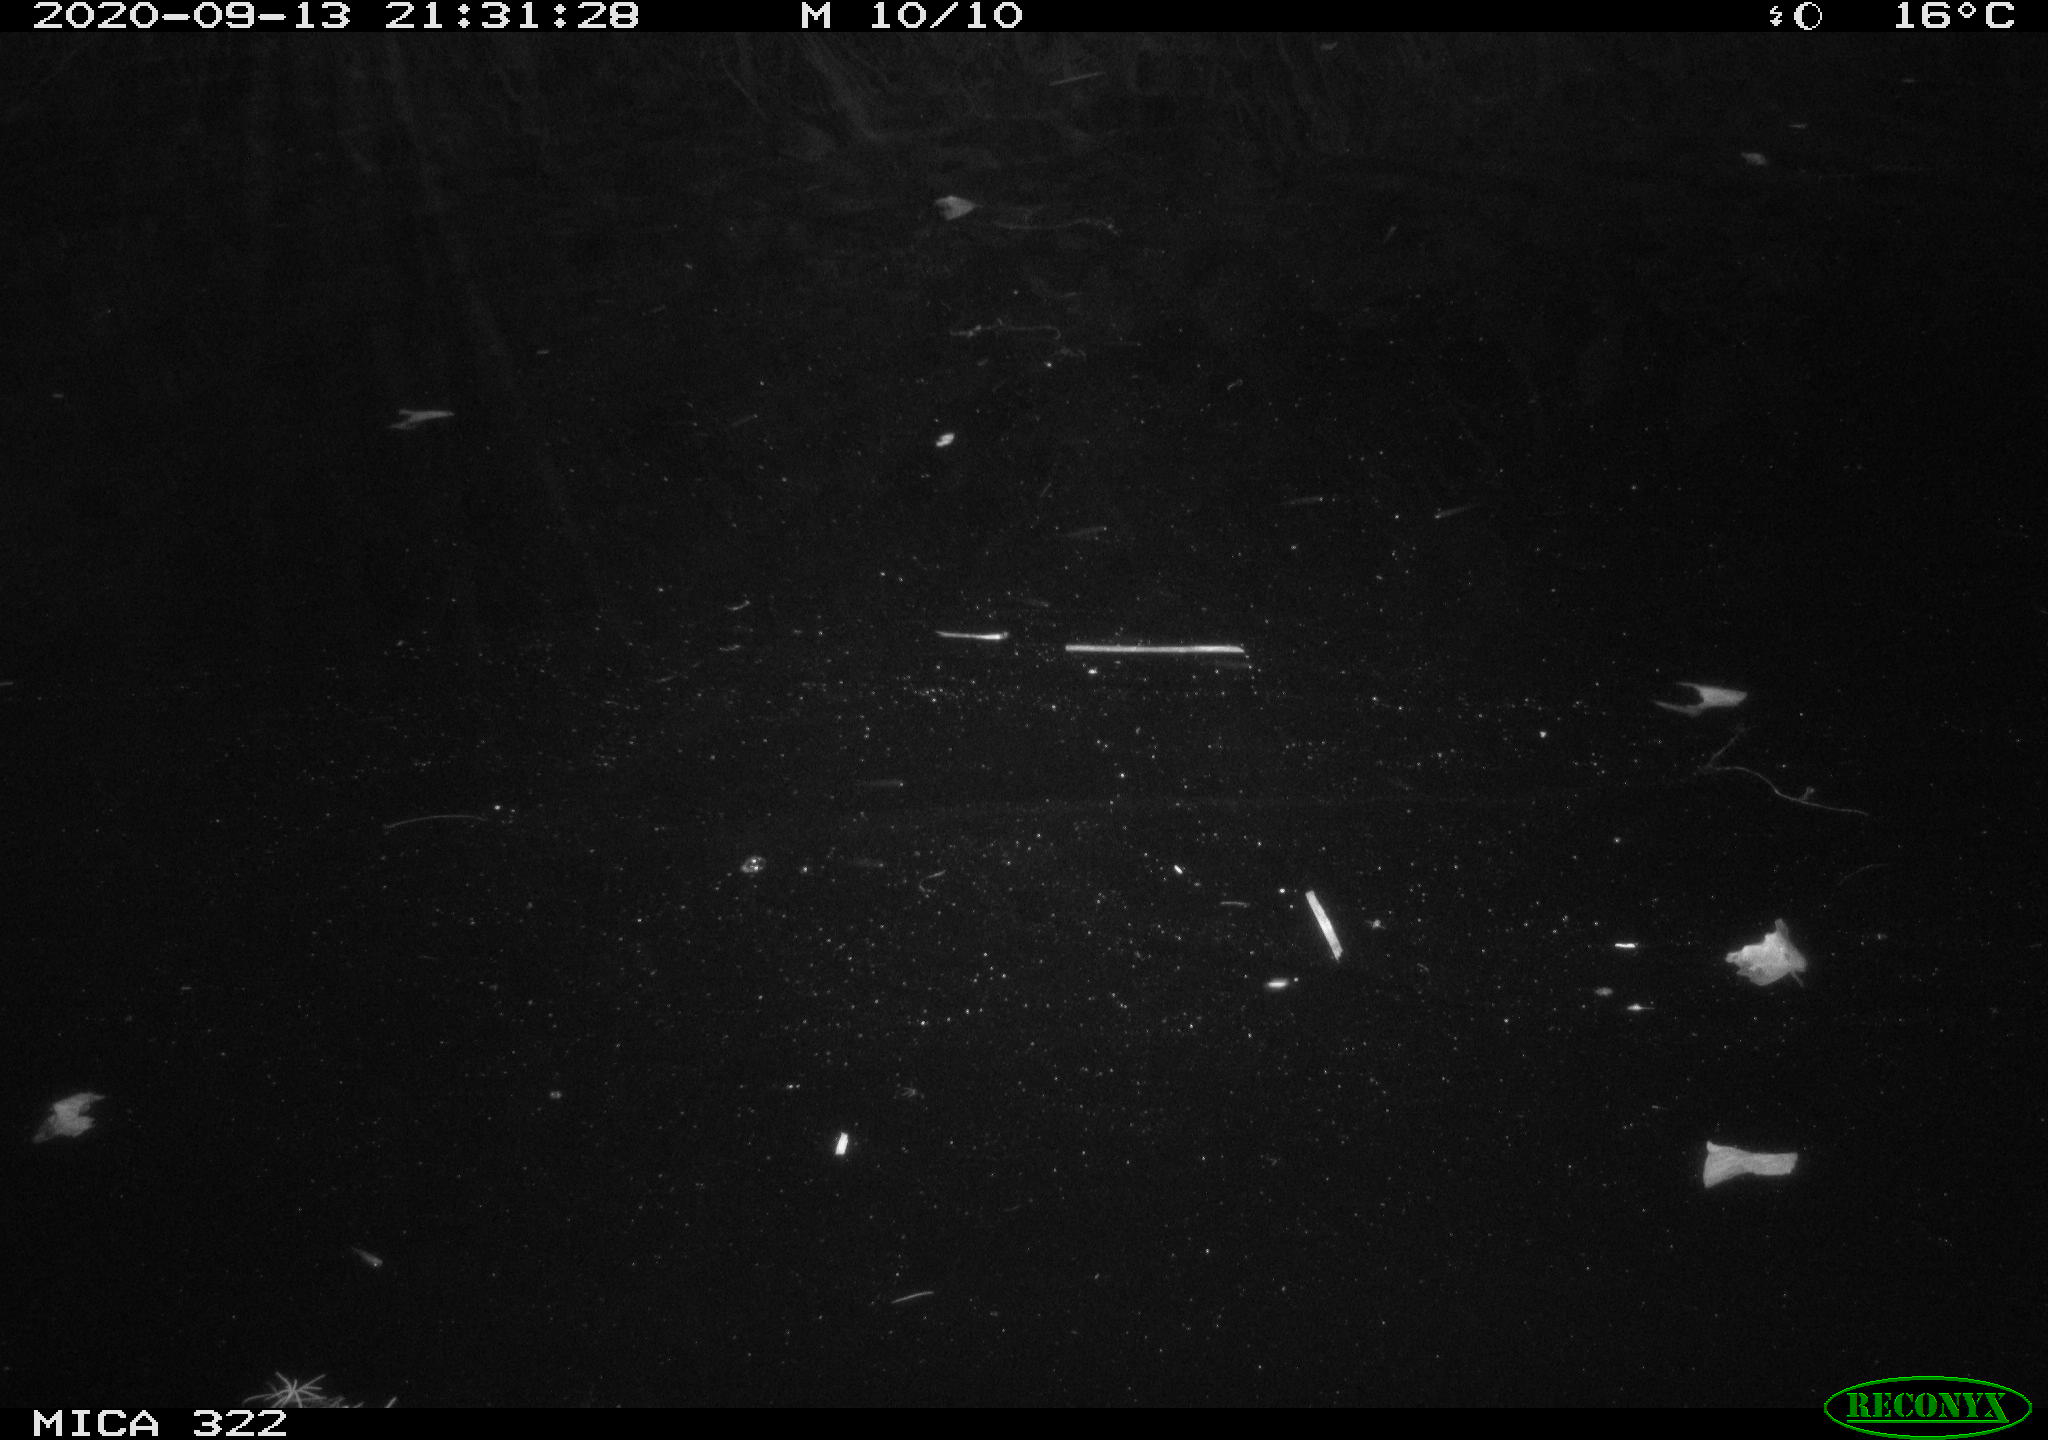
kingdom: Animalia
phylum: Chordata
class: Mammalia
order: Rodentia
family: Muridae
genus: Rattus
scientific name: Rattus norvegicus
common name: Brown rat
